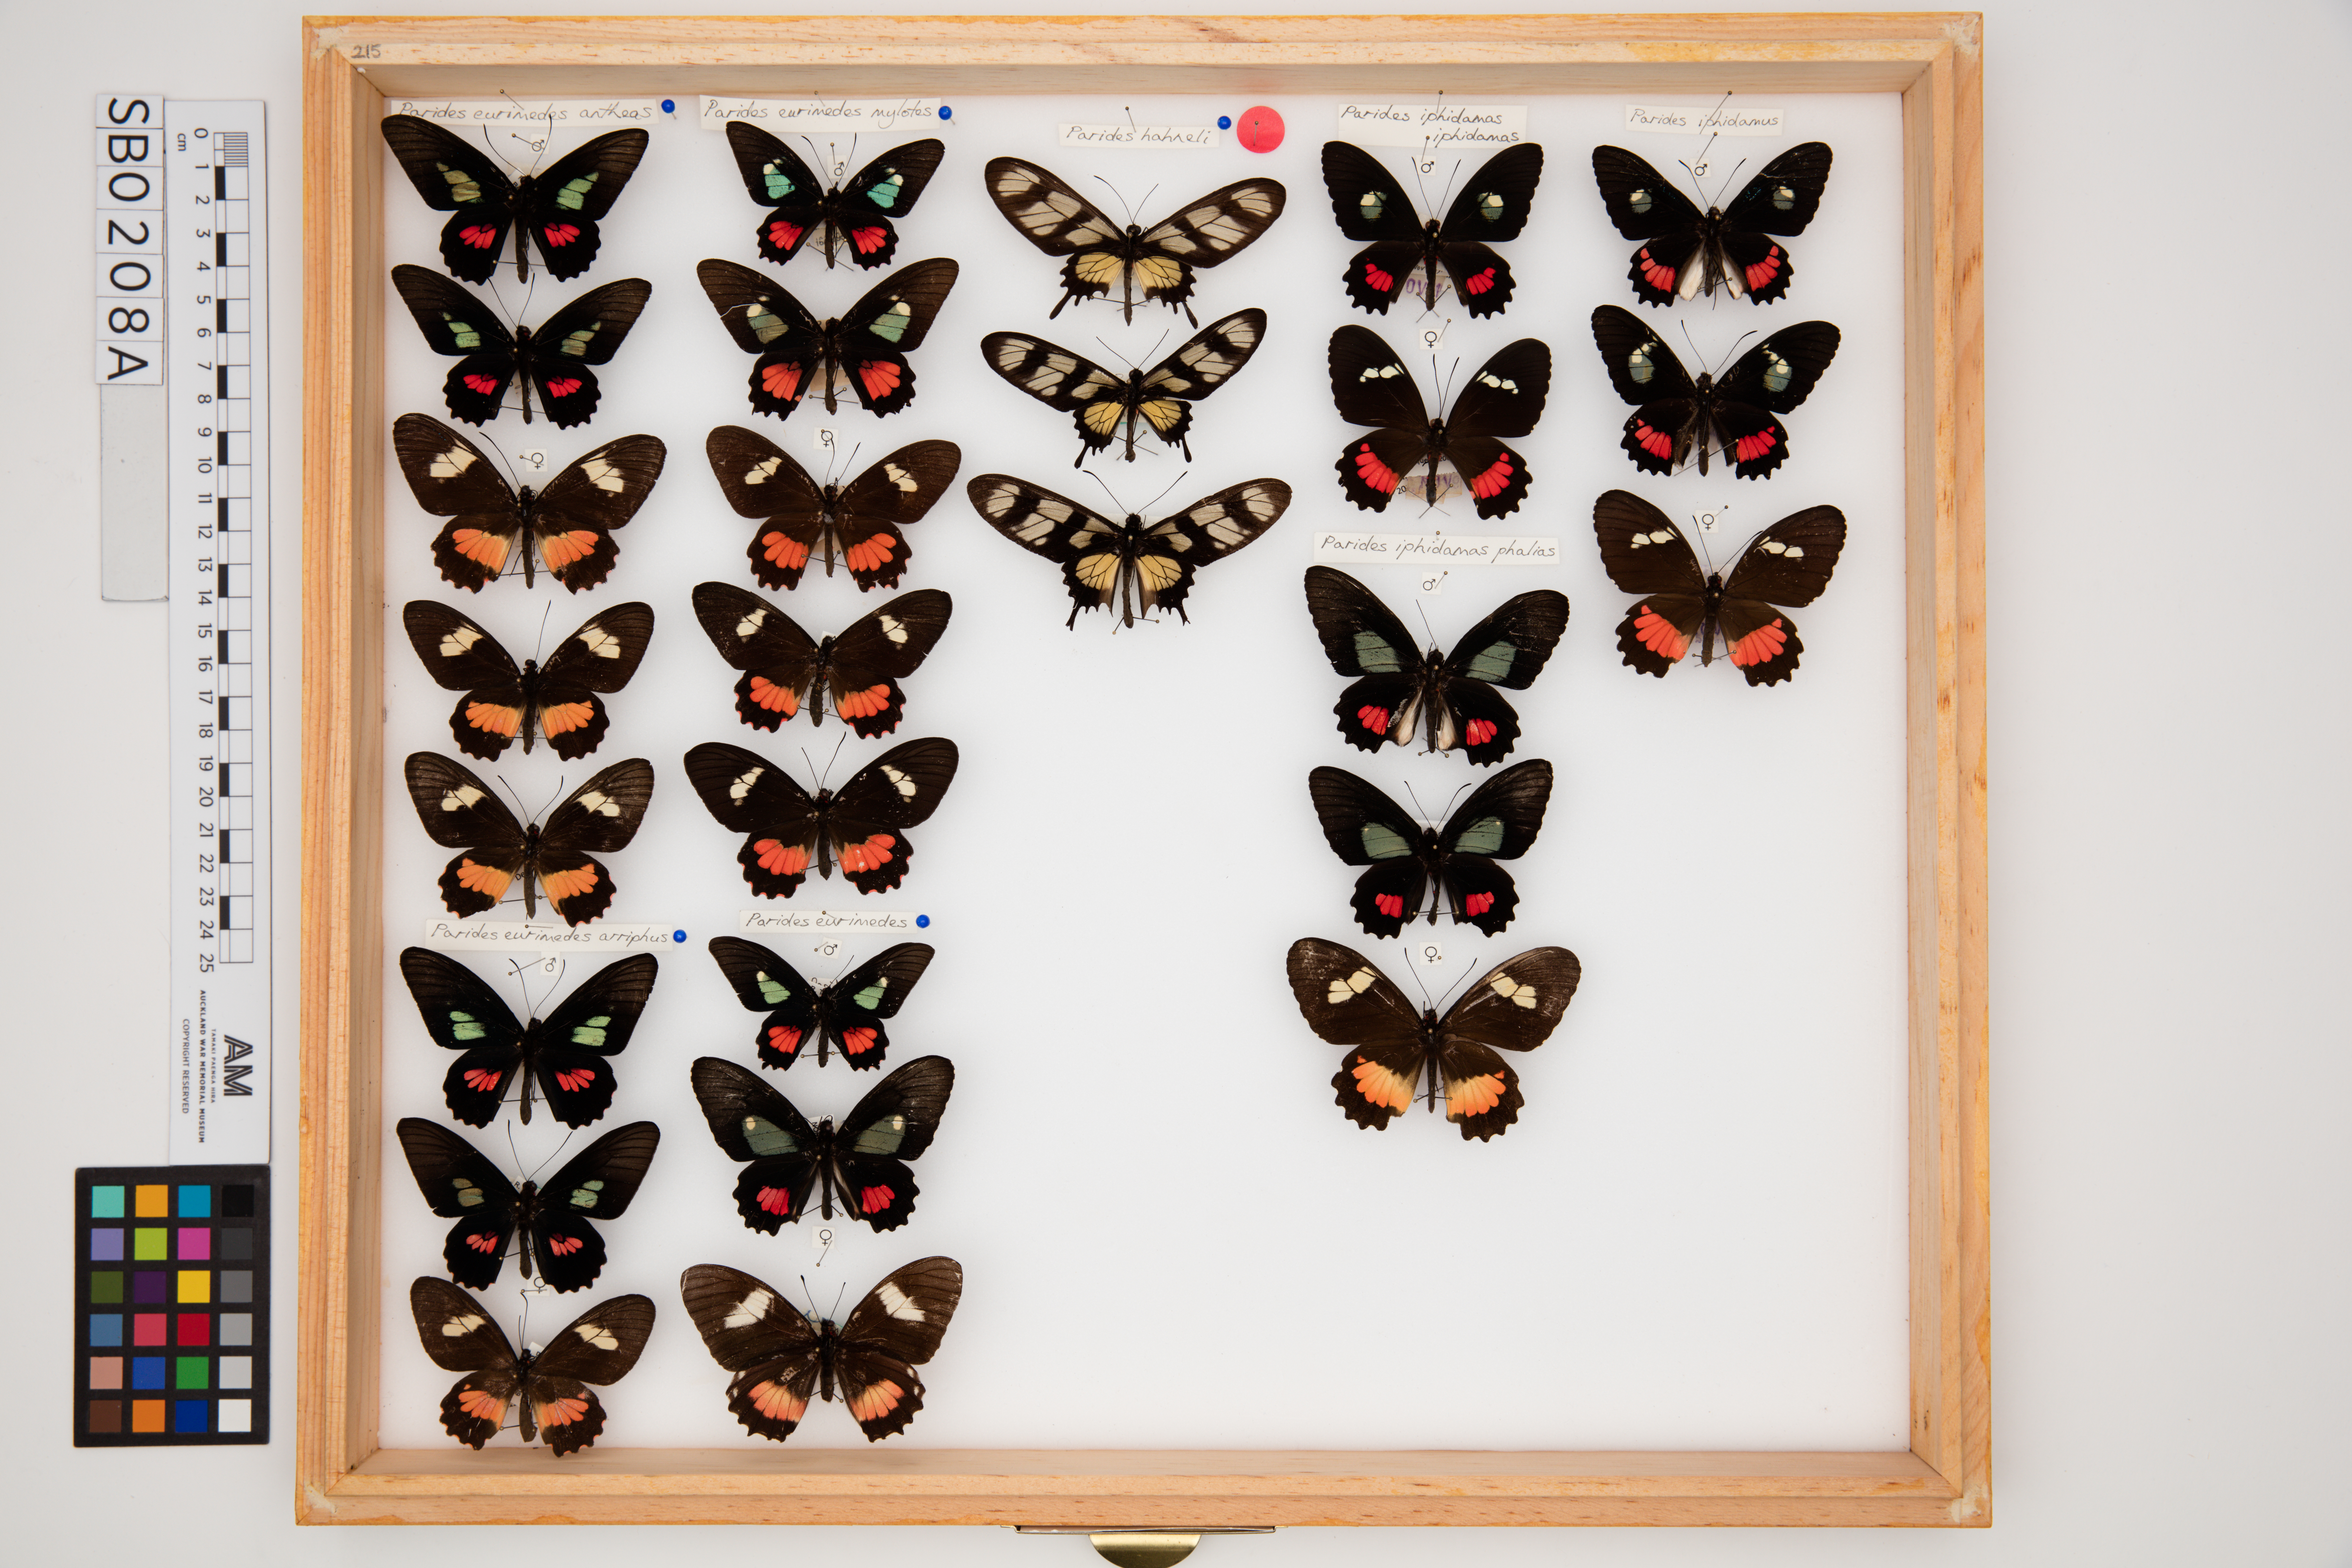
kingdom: Animalia
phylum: Arthropoda
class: Insecta
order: Lepidoptera
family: Papilionidae
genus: Parides
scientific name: Parides eurimedes
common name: True cattleheart
